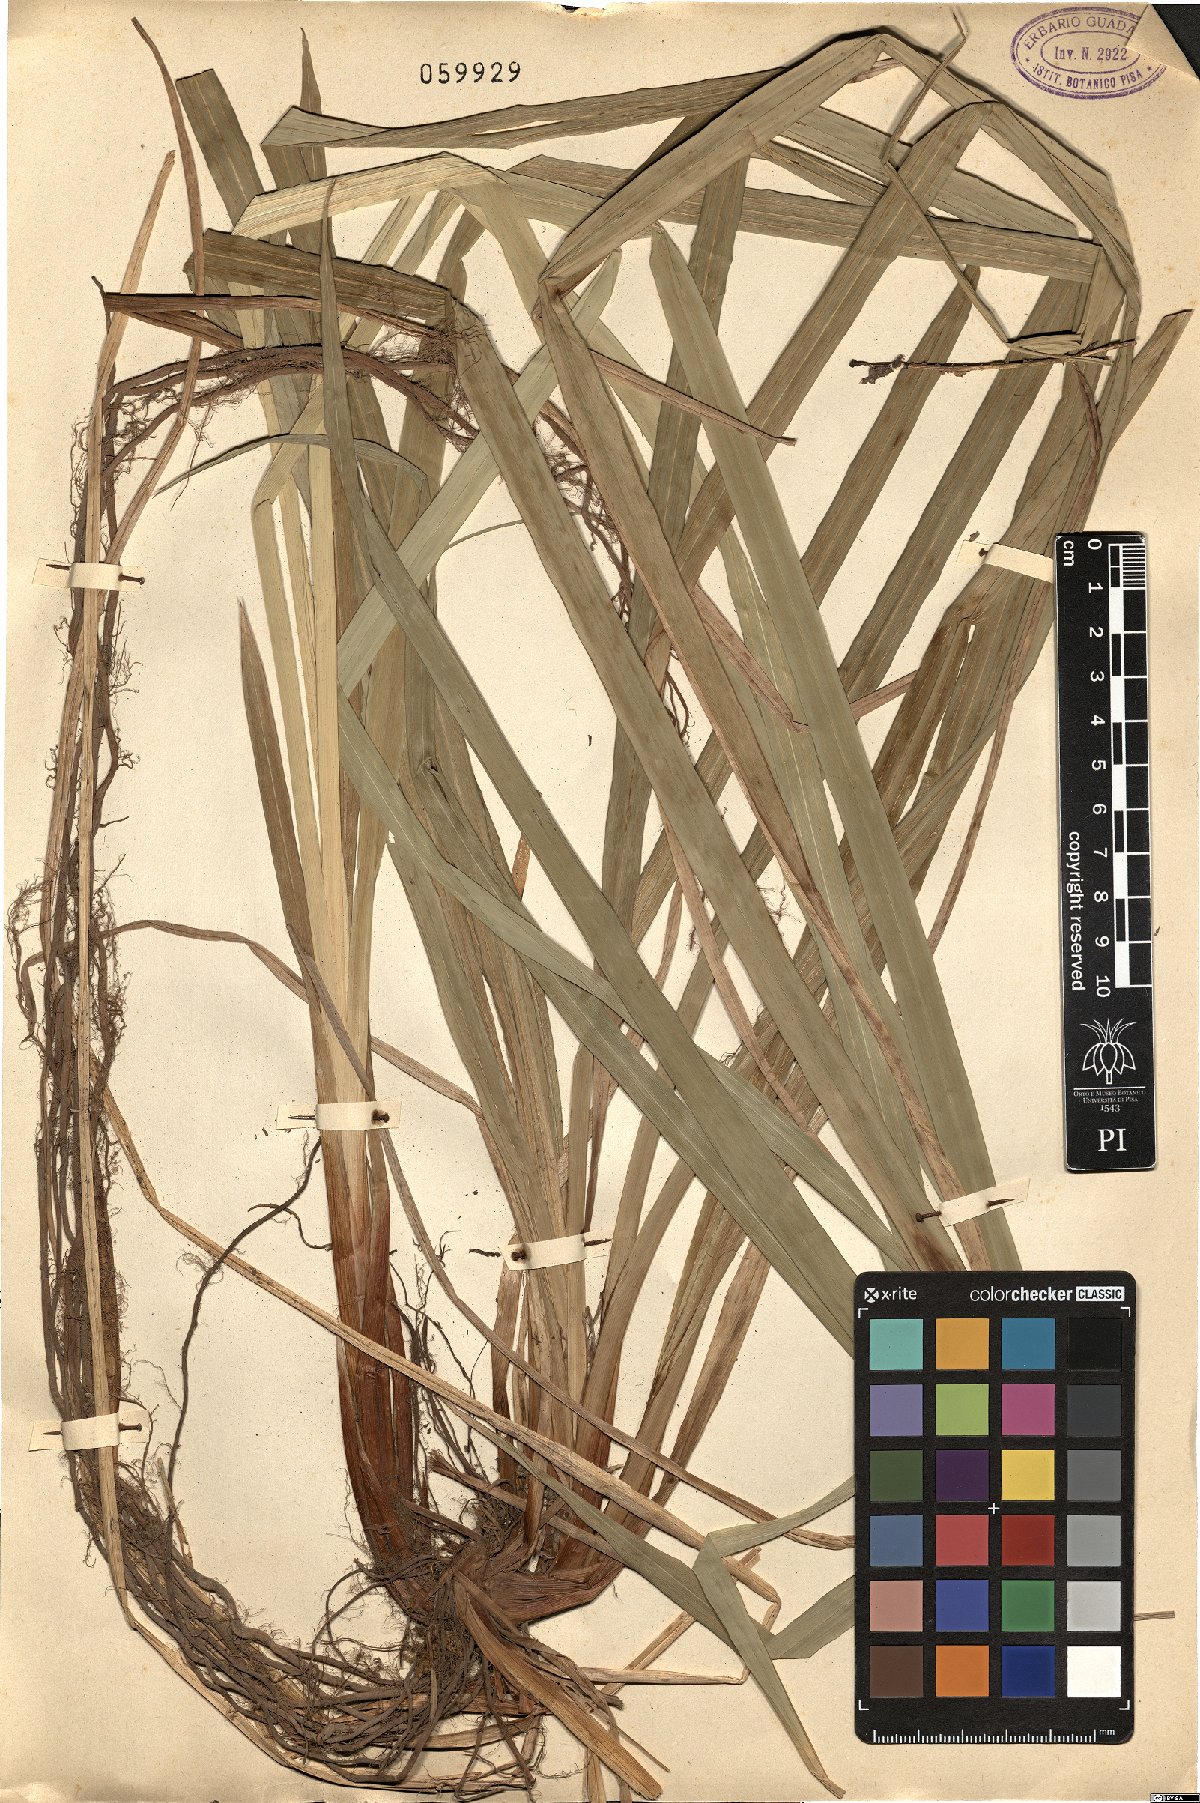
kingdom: Plantae
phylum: Tracheophyta
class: Liliopsida
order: Poales
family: Cyperaceae
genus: Carex
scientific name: Carex pendula
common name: Pendulous sedge
